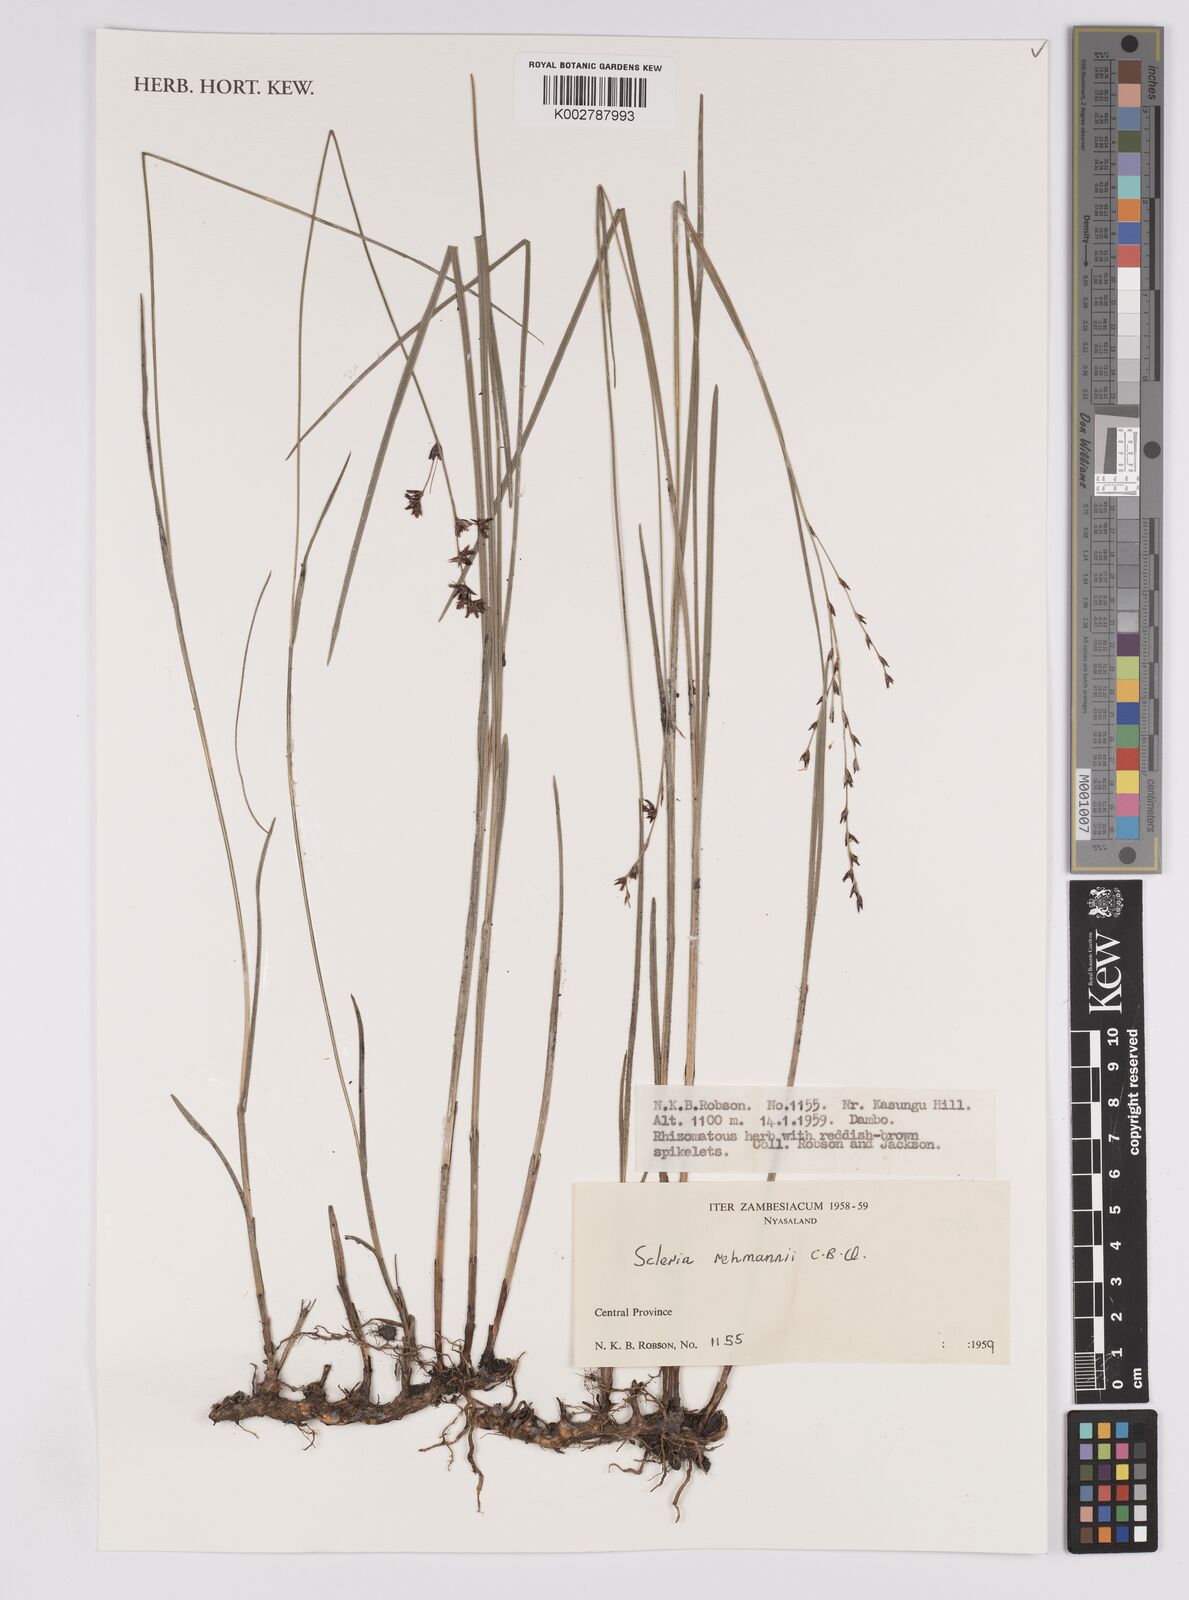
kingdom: Plantae
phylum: Tracheophyta
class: Liliopsida
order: Poales
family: Cyperaceae
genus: Scleria
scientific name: Scleria rehmannii
